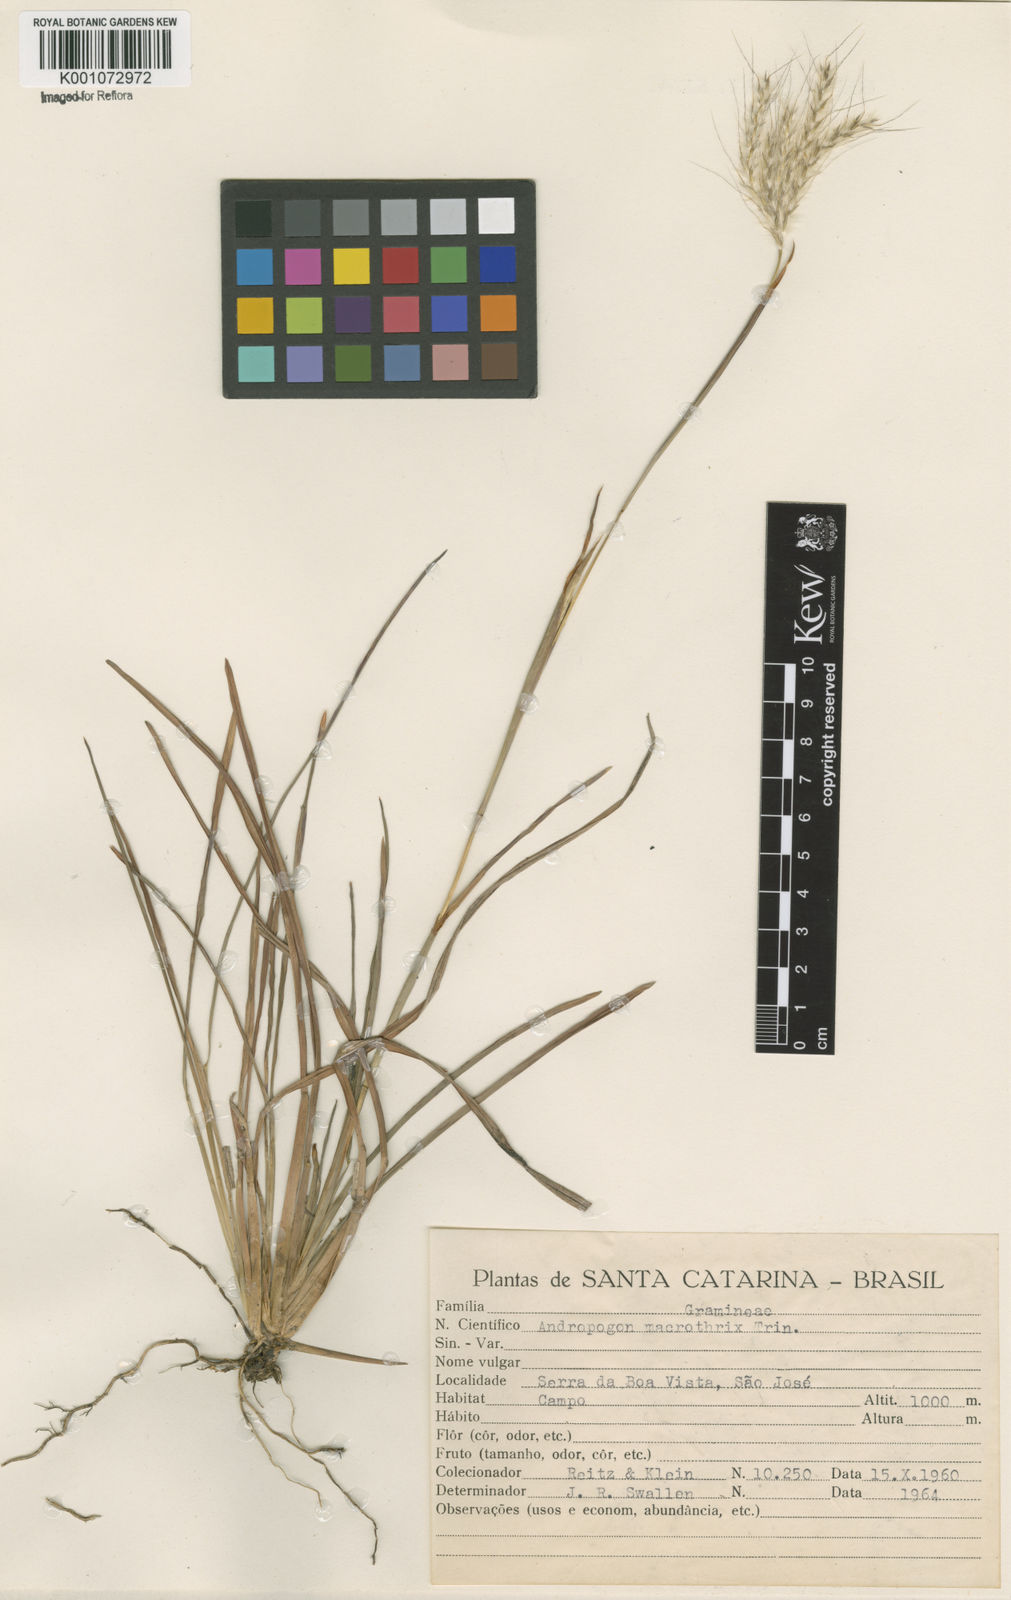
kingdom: Plantae
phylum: Tracheophyta
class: Liliopsida
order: Poales
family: Poaceae
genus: Andropogon
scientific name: Andropogon macrothrix
